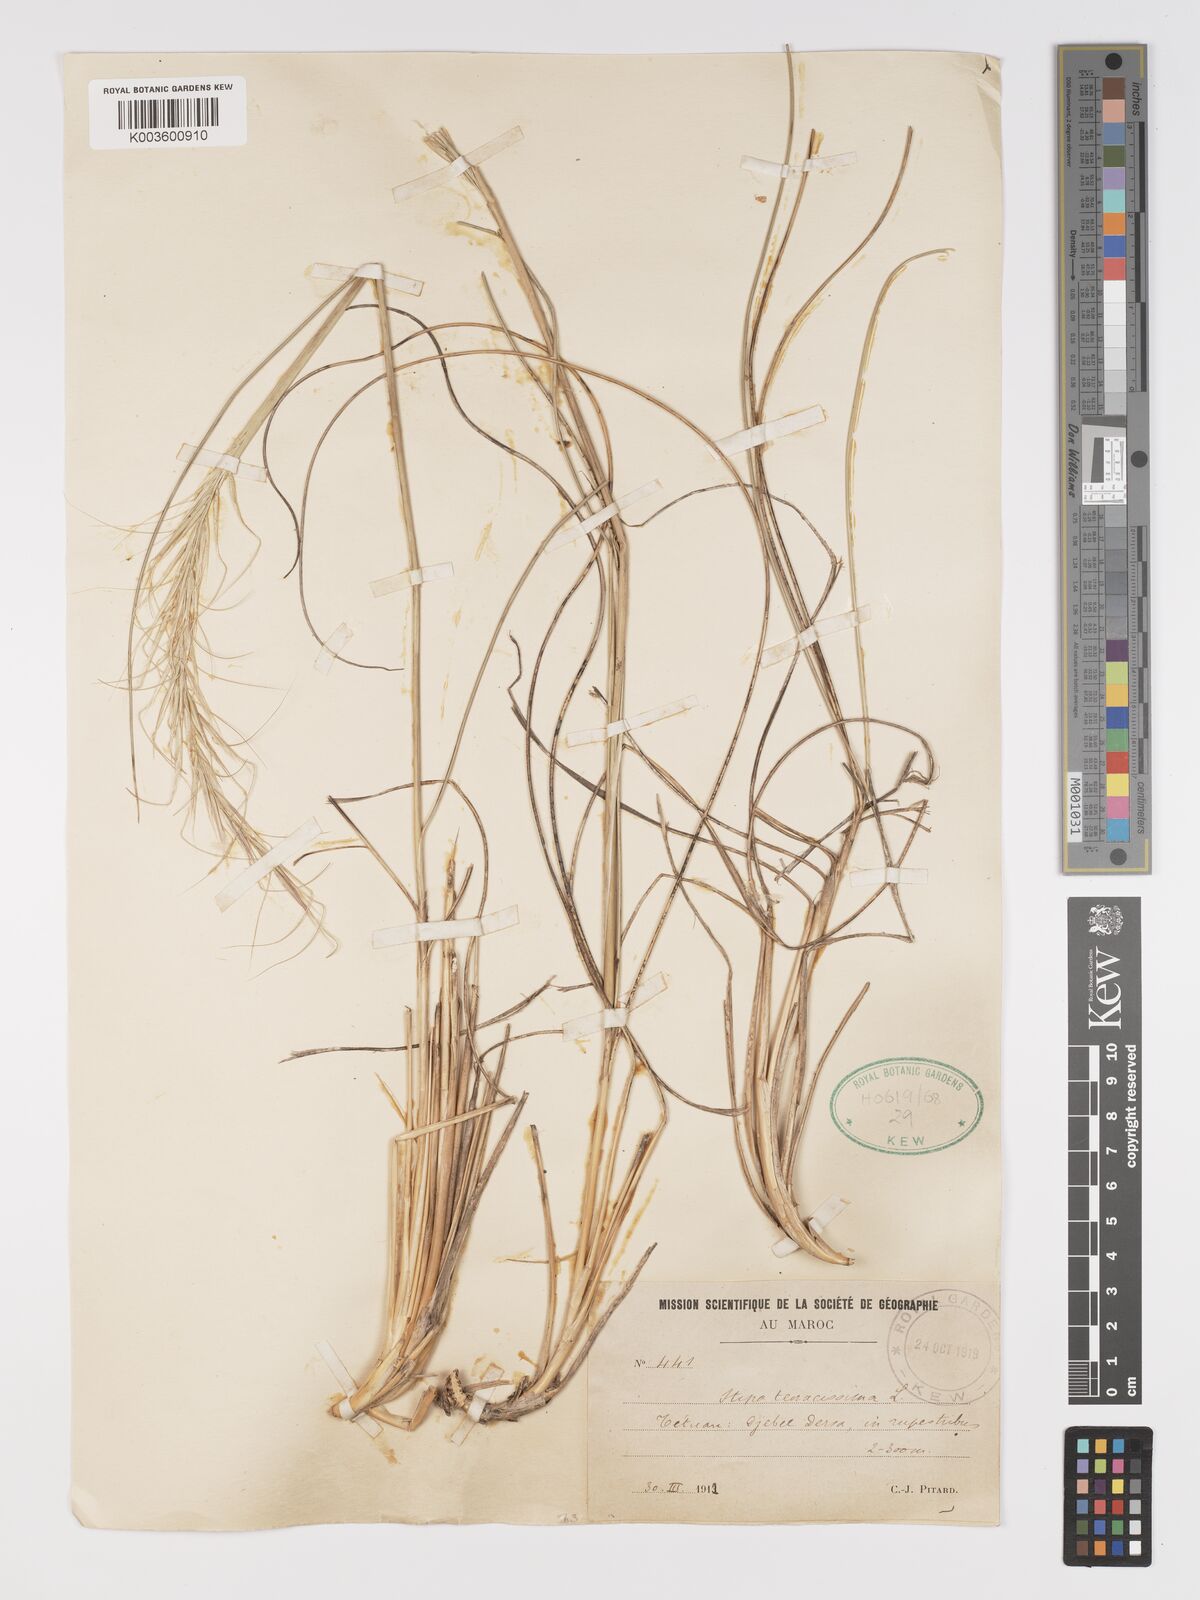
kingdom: Plantae
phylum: Tracheophyta
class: Liliopsida
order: Poales
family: Poaceae
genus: Macrochloa
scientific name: Macrochloa tenacissima
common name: Alfa grass
